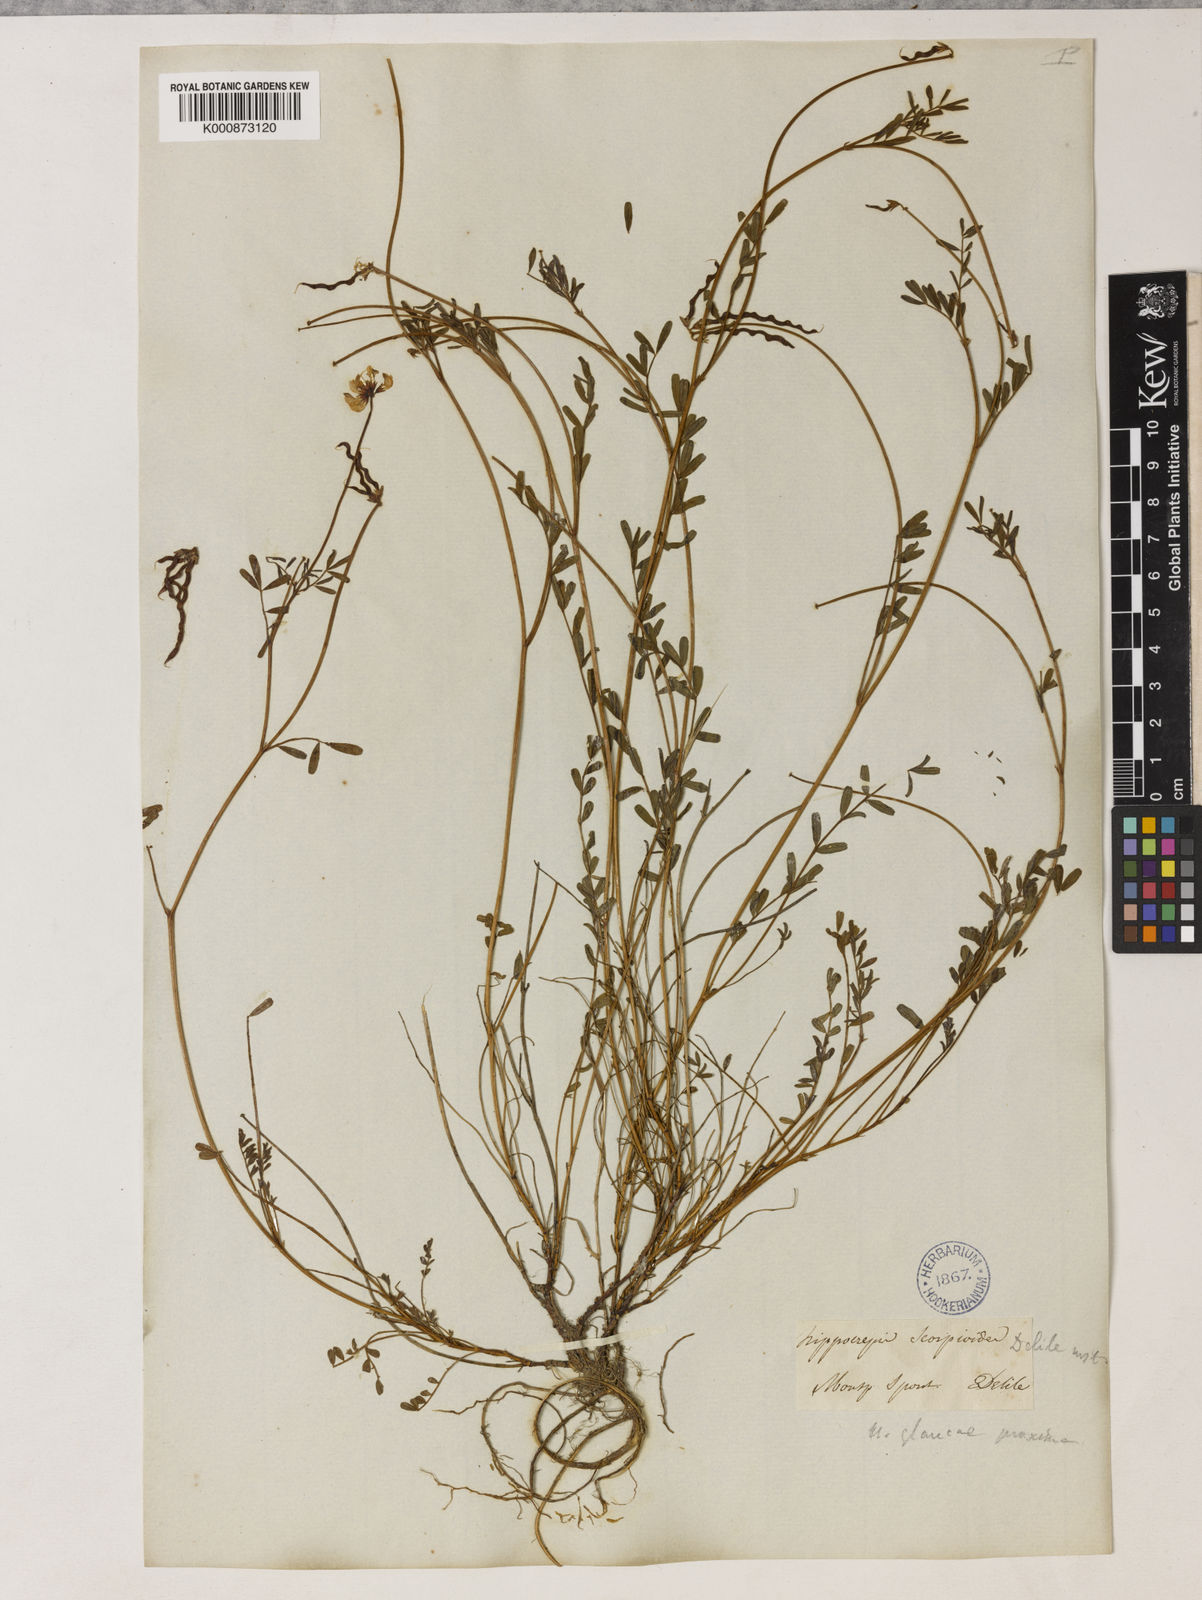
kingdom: Plantae
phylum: Tracheophyta
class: Magnoliopsida
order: Fabales
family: Fabaceae
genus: Hippocrepis
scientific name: Hippocrepis glauca
